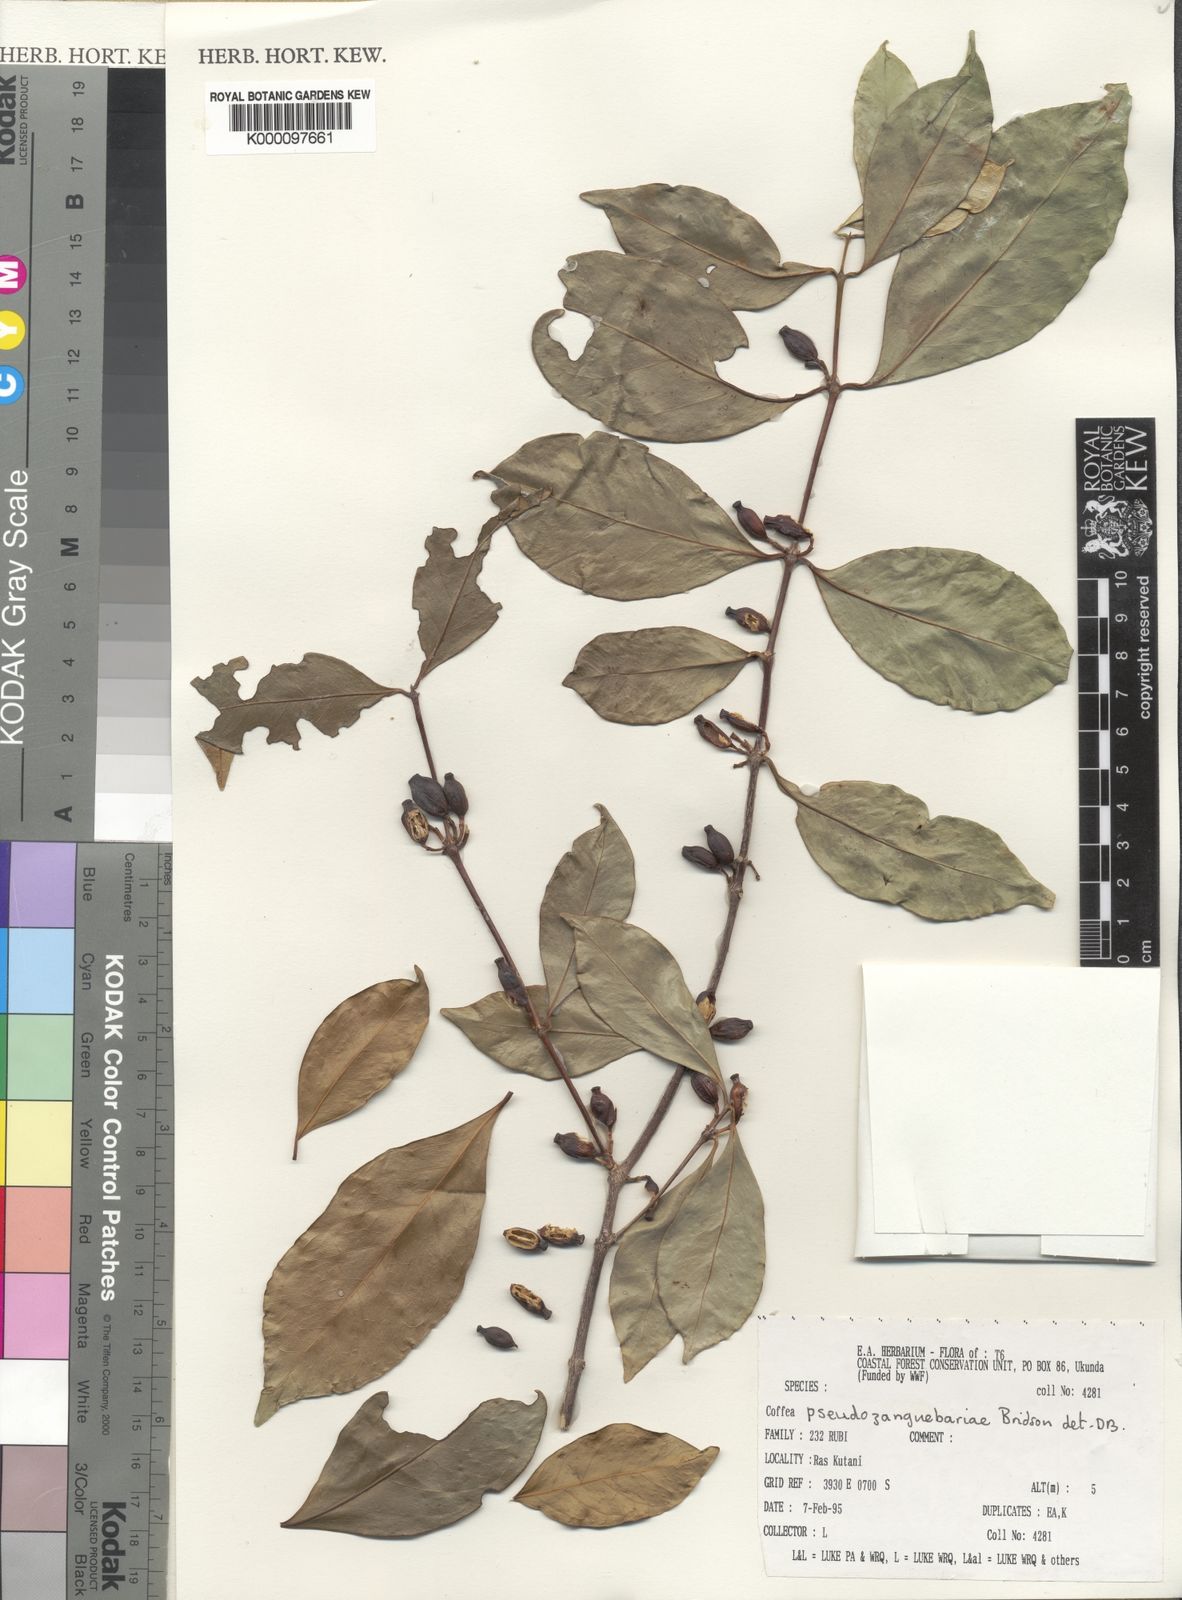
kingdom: Plantae
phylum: Tracheophyta
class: Magnoliopsida
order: Gentianales
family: Rubiaceae
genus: Coffea
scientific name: Coffea pseudozanguebariae
